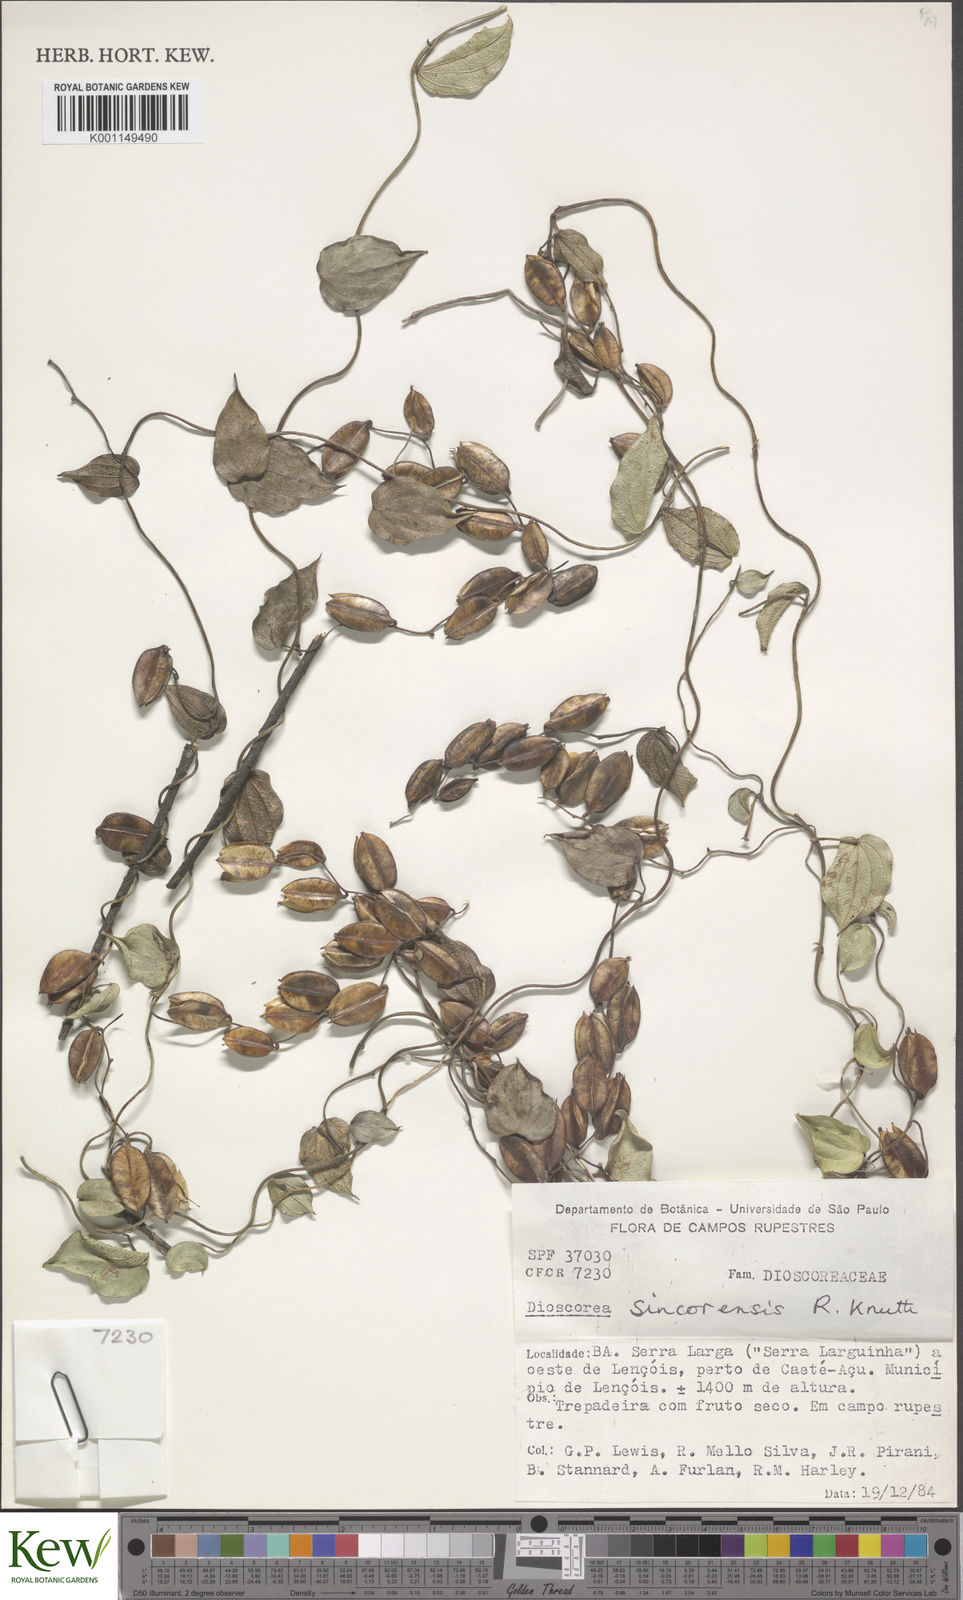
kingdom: Plantae
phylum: Tracheophyta
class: Liliopsida
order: Dioscoreales
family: Dioscoreaceae
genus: Dioscorea
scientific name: Dioscorea sincorensis
